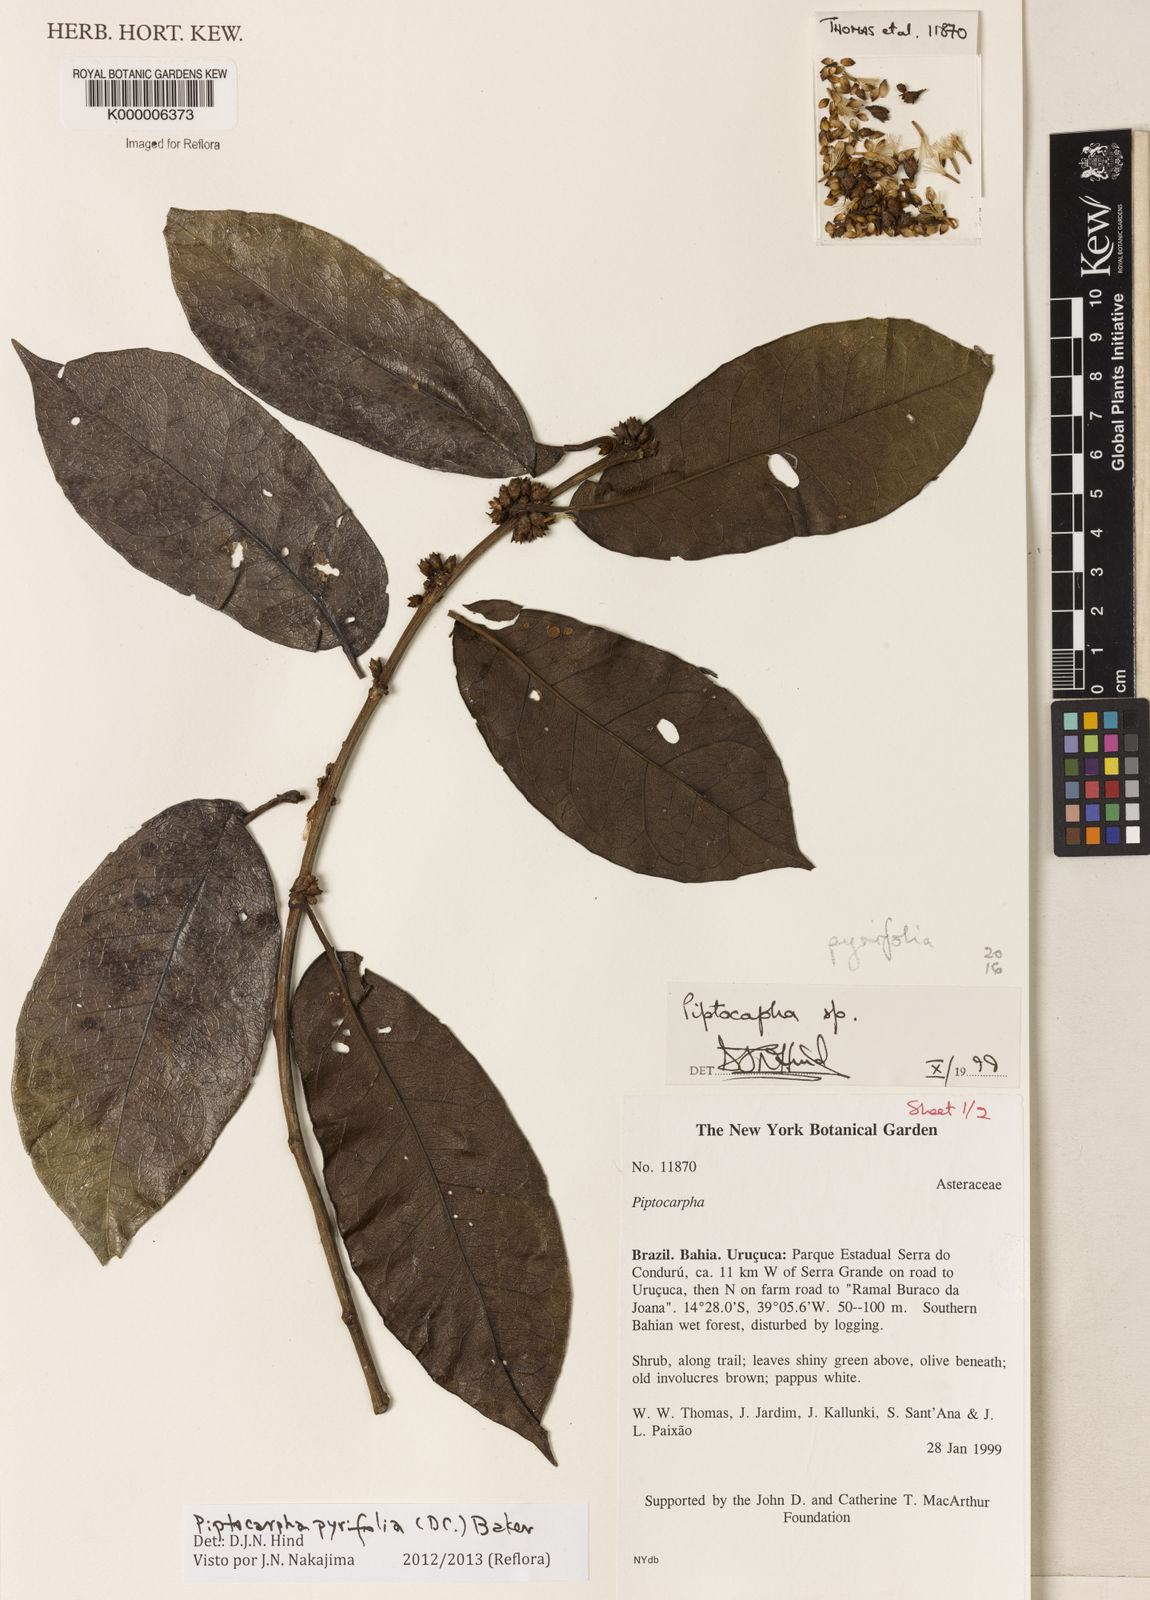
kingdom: Plantae
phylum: Tracheophyta
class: Magnoliopsida
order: Asterales
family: Asteraceae
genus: Piptocarpha
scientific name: Piptocarpha
